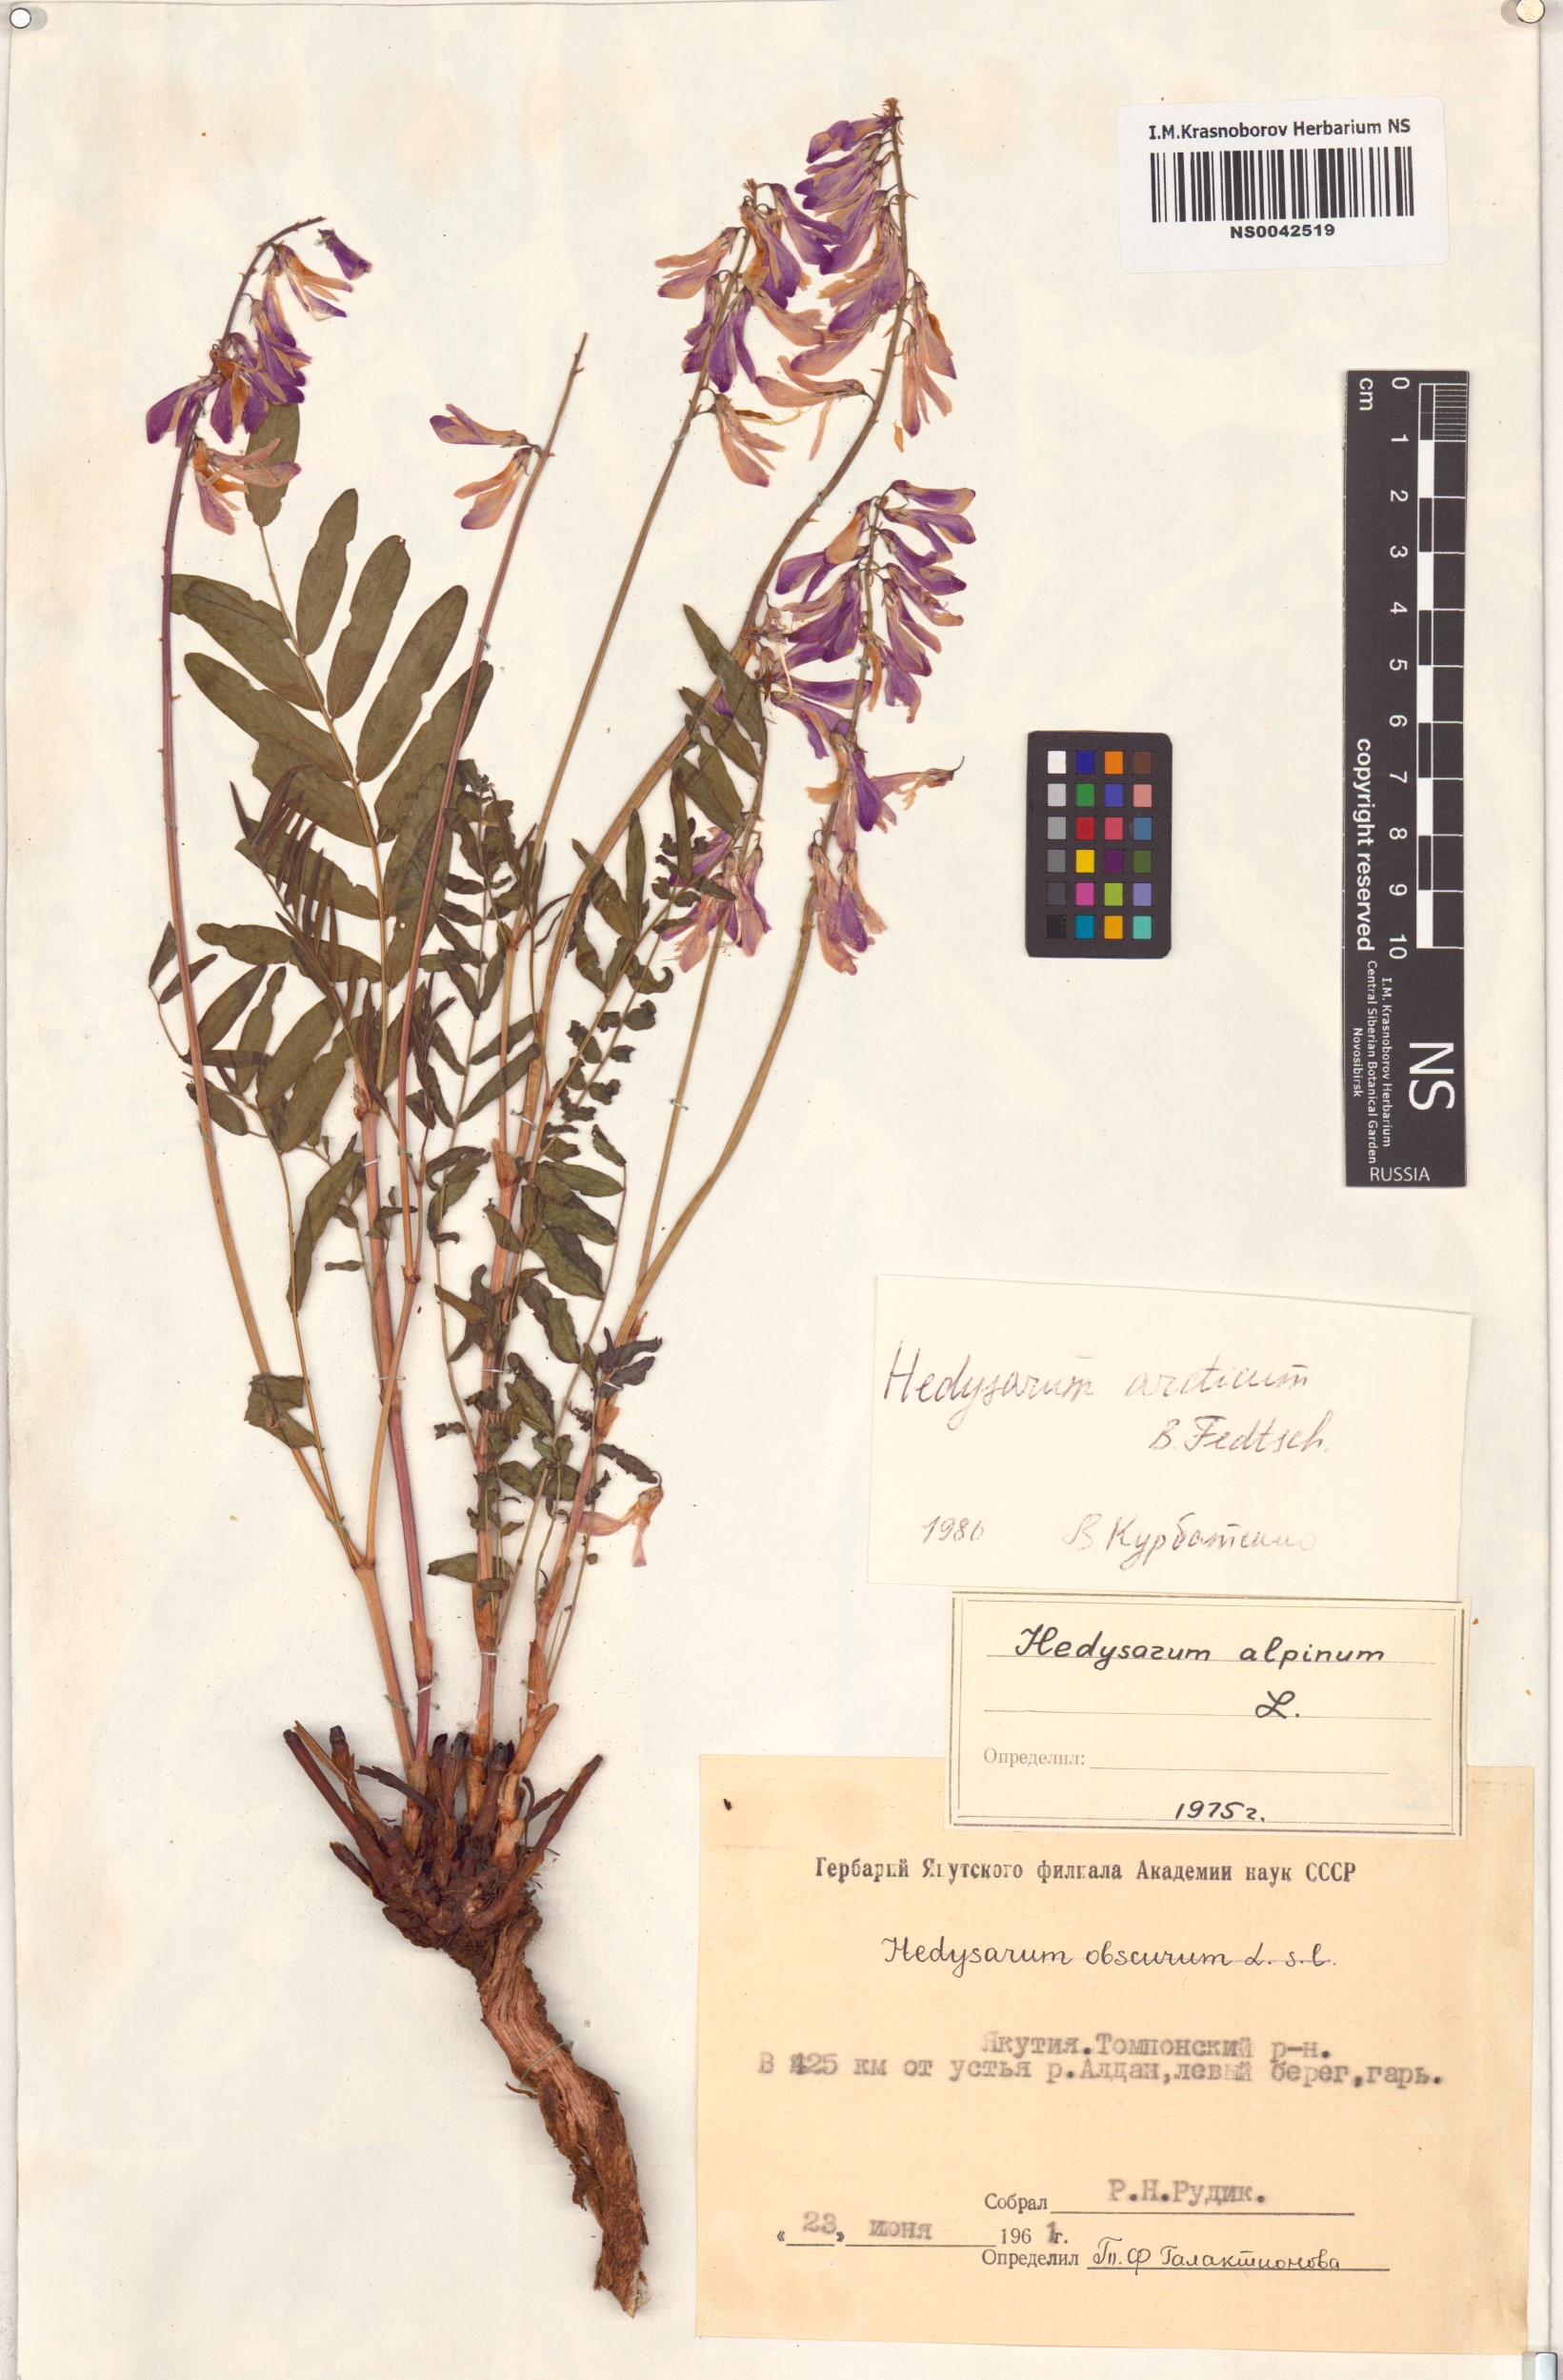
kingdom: Plantae
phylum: Tracheophyta
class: Magnoliopsida
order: Fabales
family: Fabaceae
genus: Hedysarum
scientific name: Hedysarum hedysaroides
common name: Alpine french-honeysuckle
